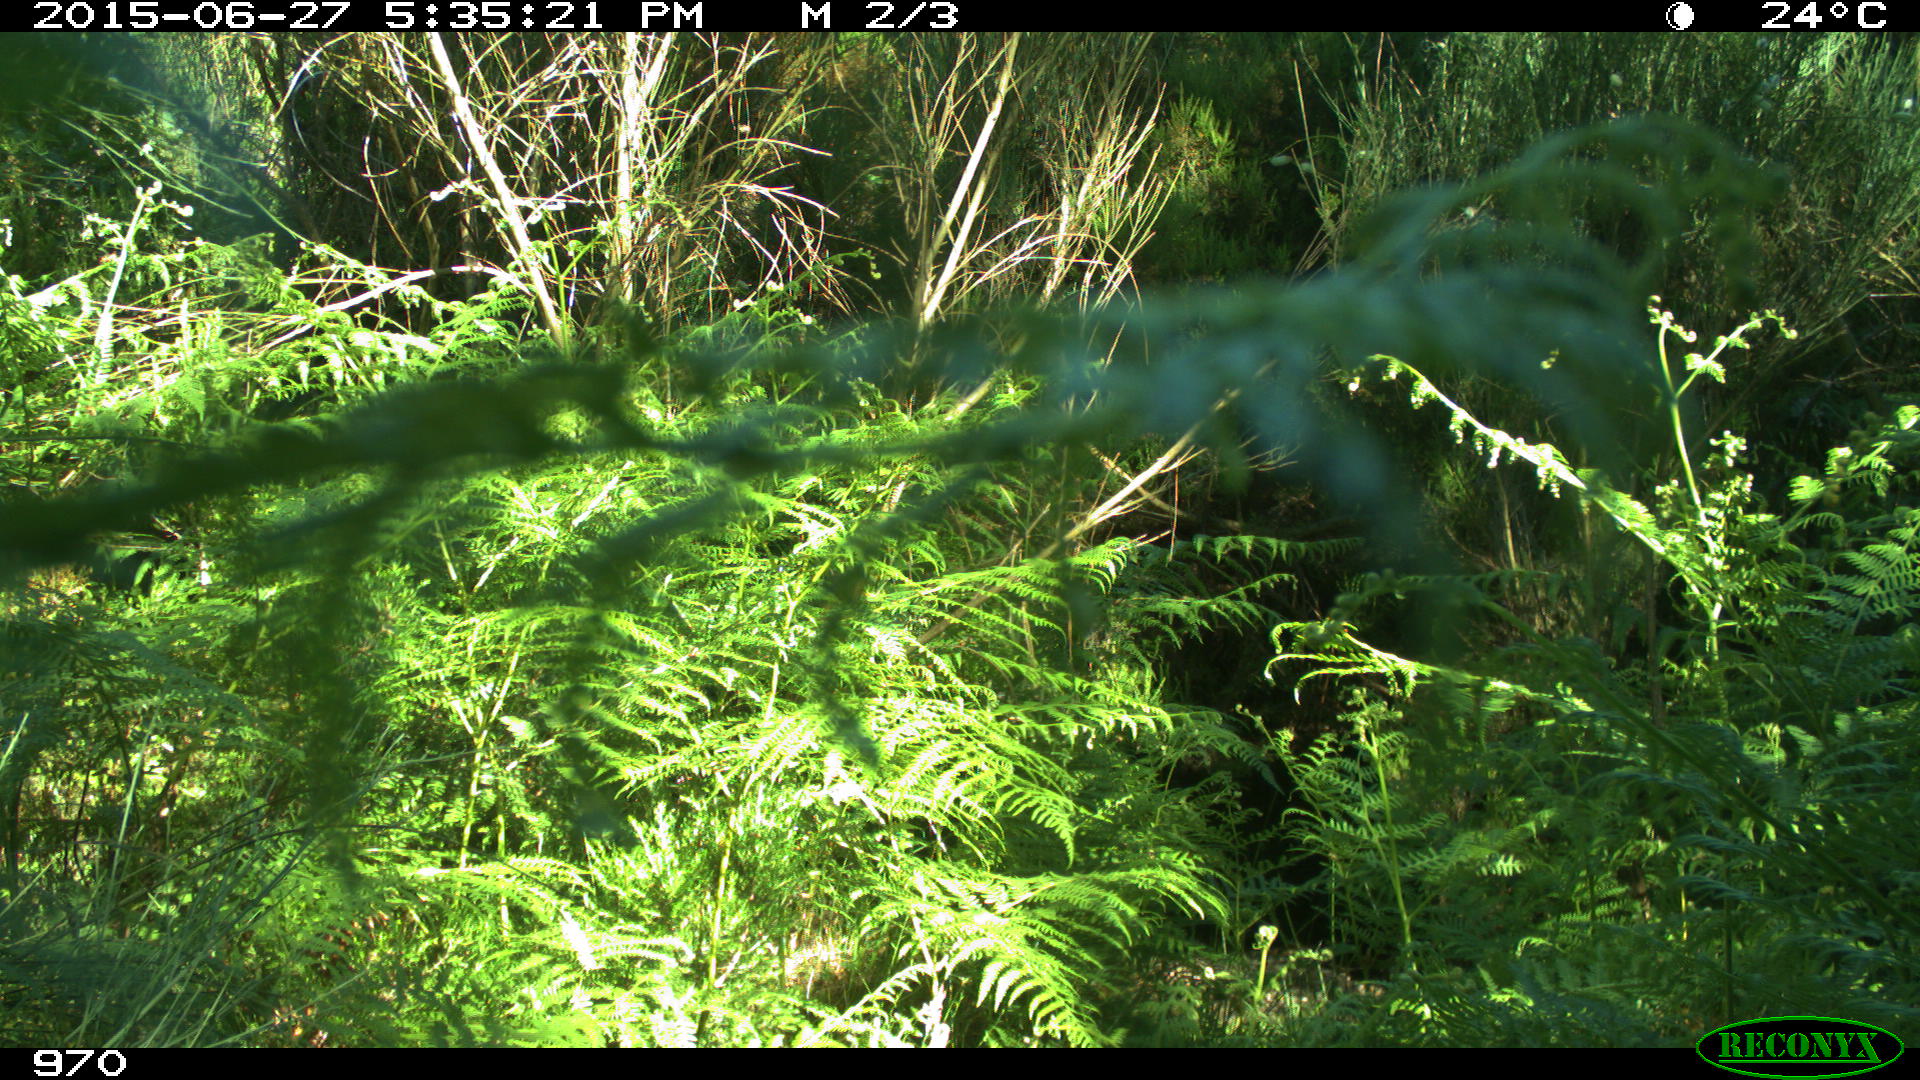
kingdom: Animalia
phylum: Chordata
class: Mammalia
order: Artiodactyla
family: Cervidae
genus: Capreolus
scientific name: Capreolus capreolus
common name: Western roe deer
